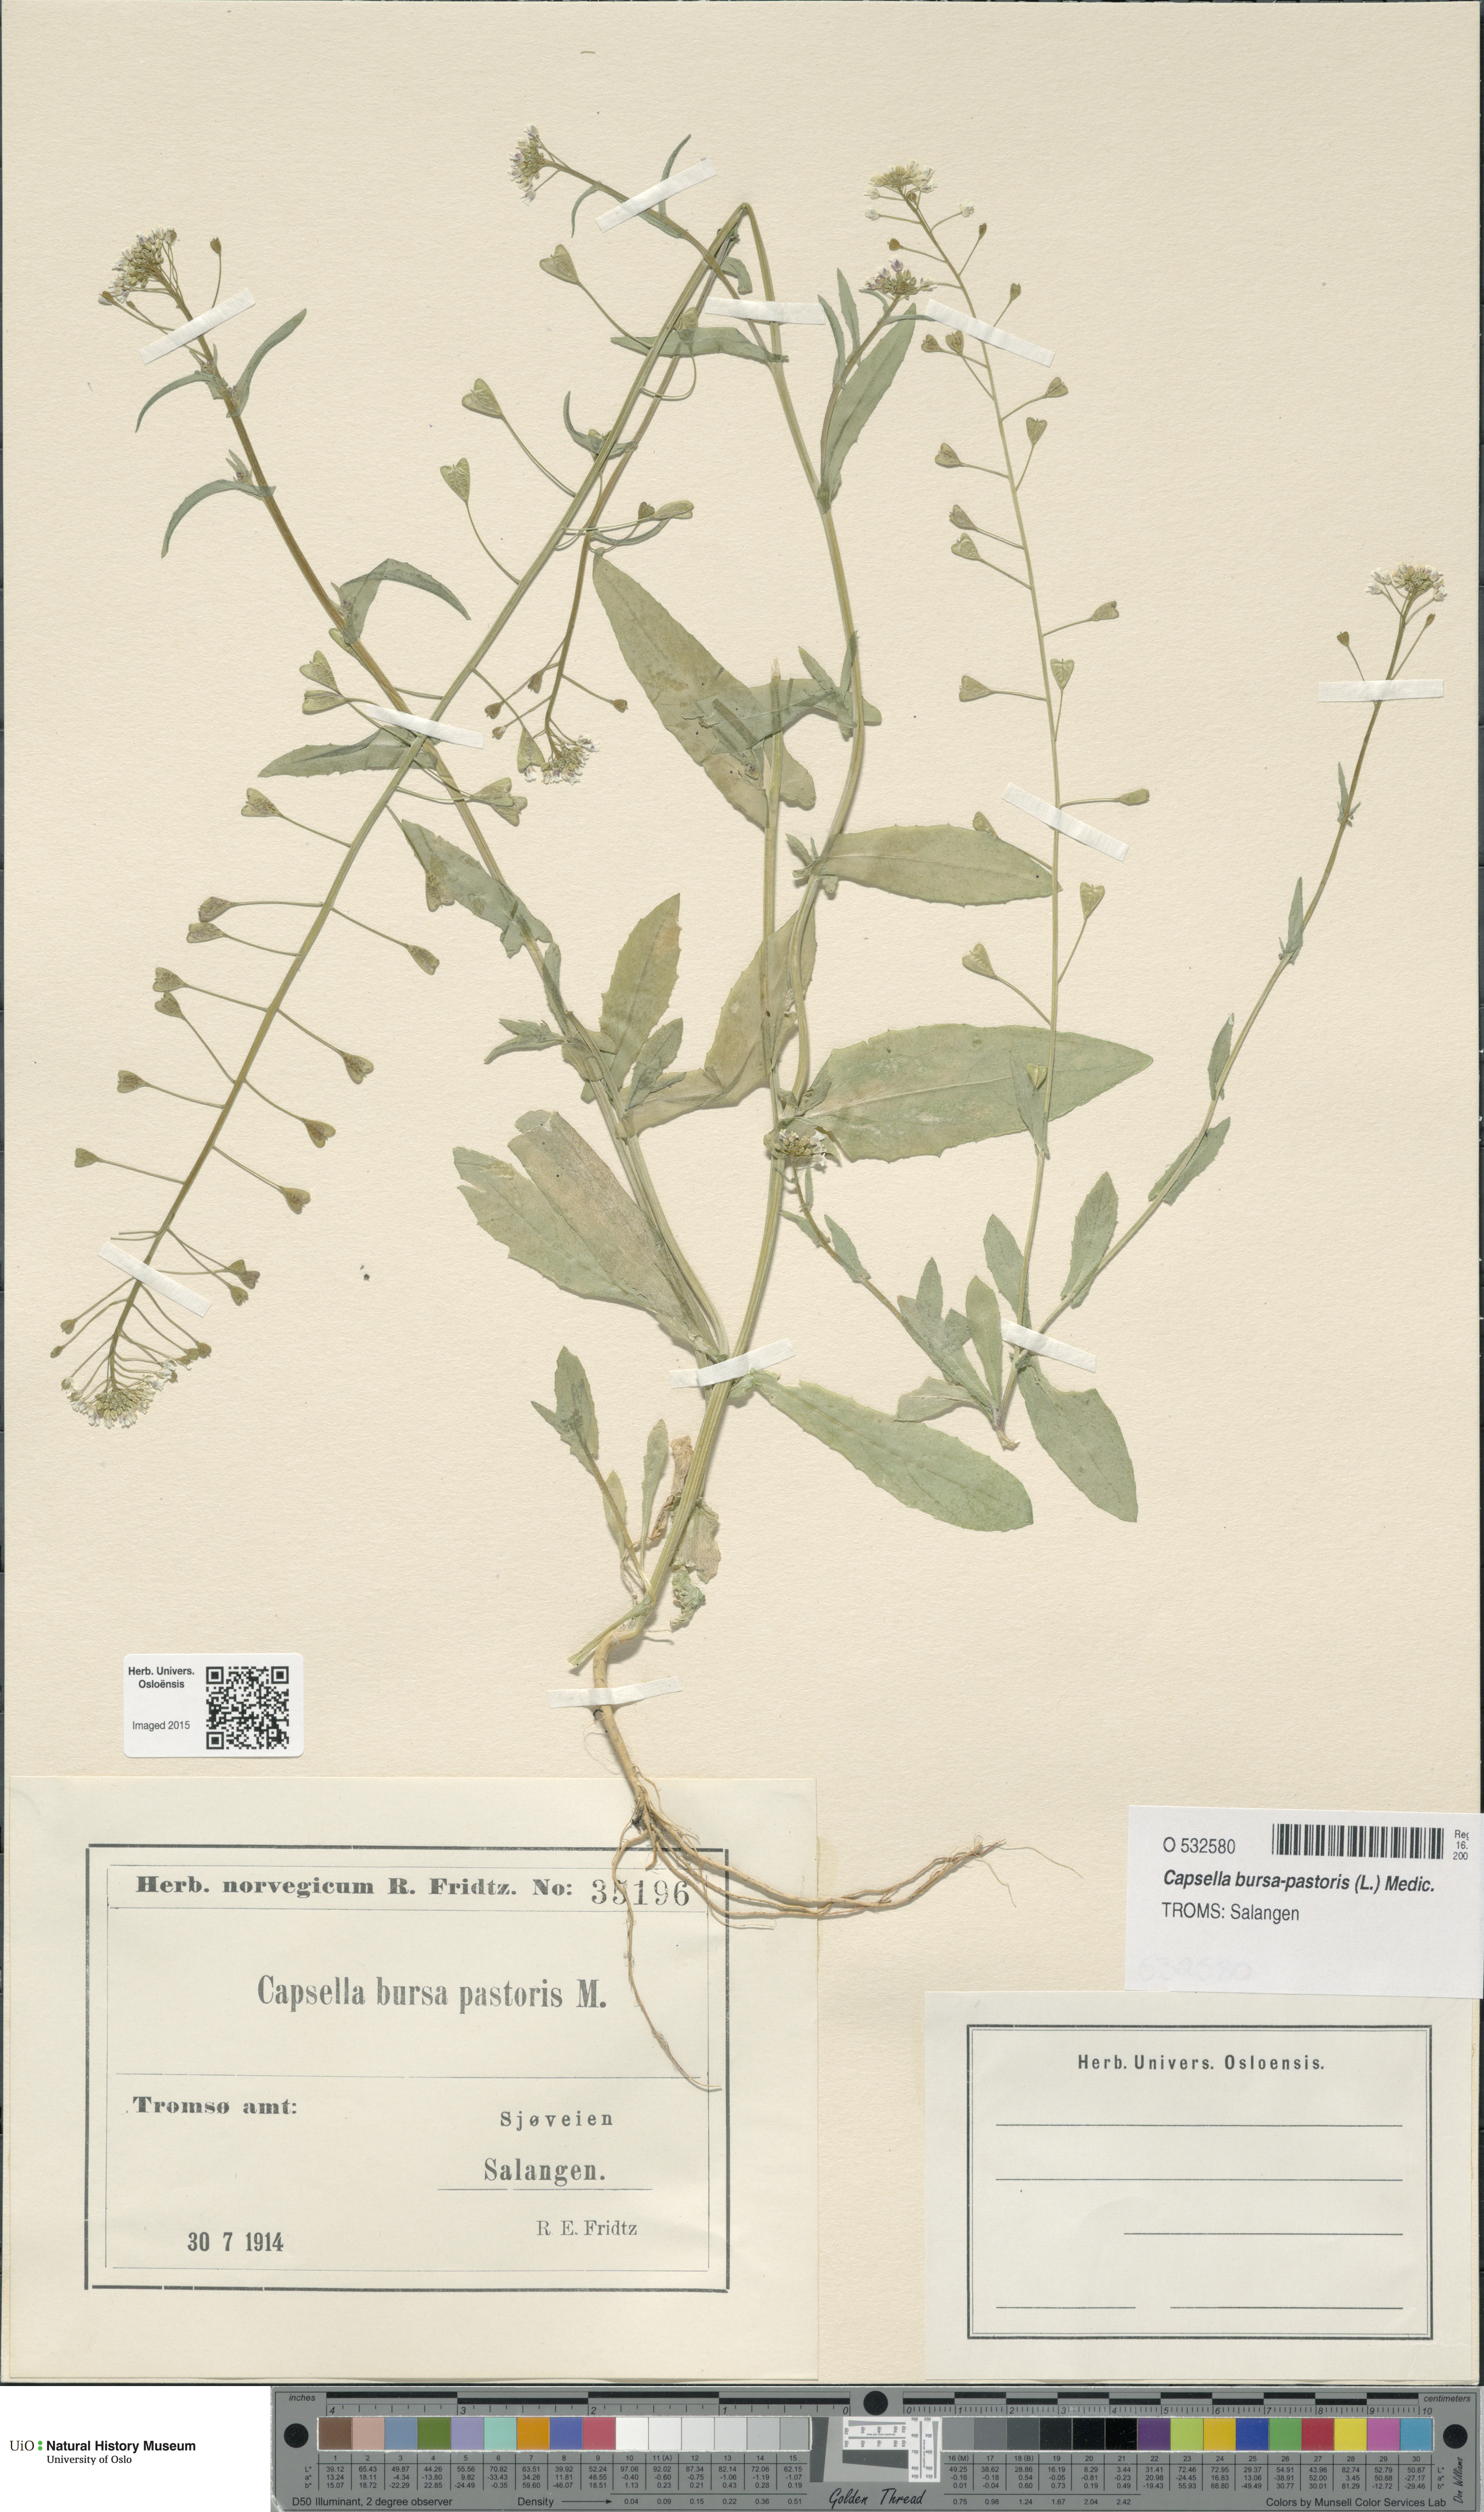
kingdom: Plantae
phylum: Tracheophyta
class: Magnoliopsida
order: Brassicales
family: Brassicaceae
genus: Capsella
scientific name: Capsella bursa-pastoris
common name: Shepherd's purse
